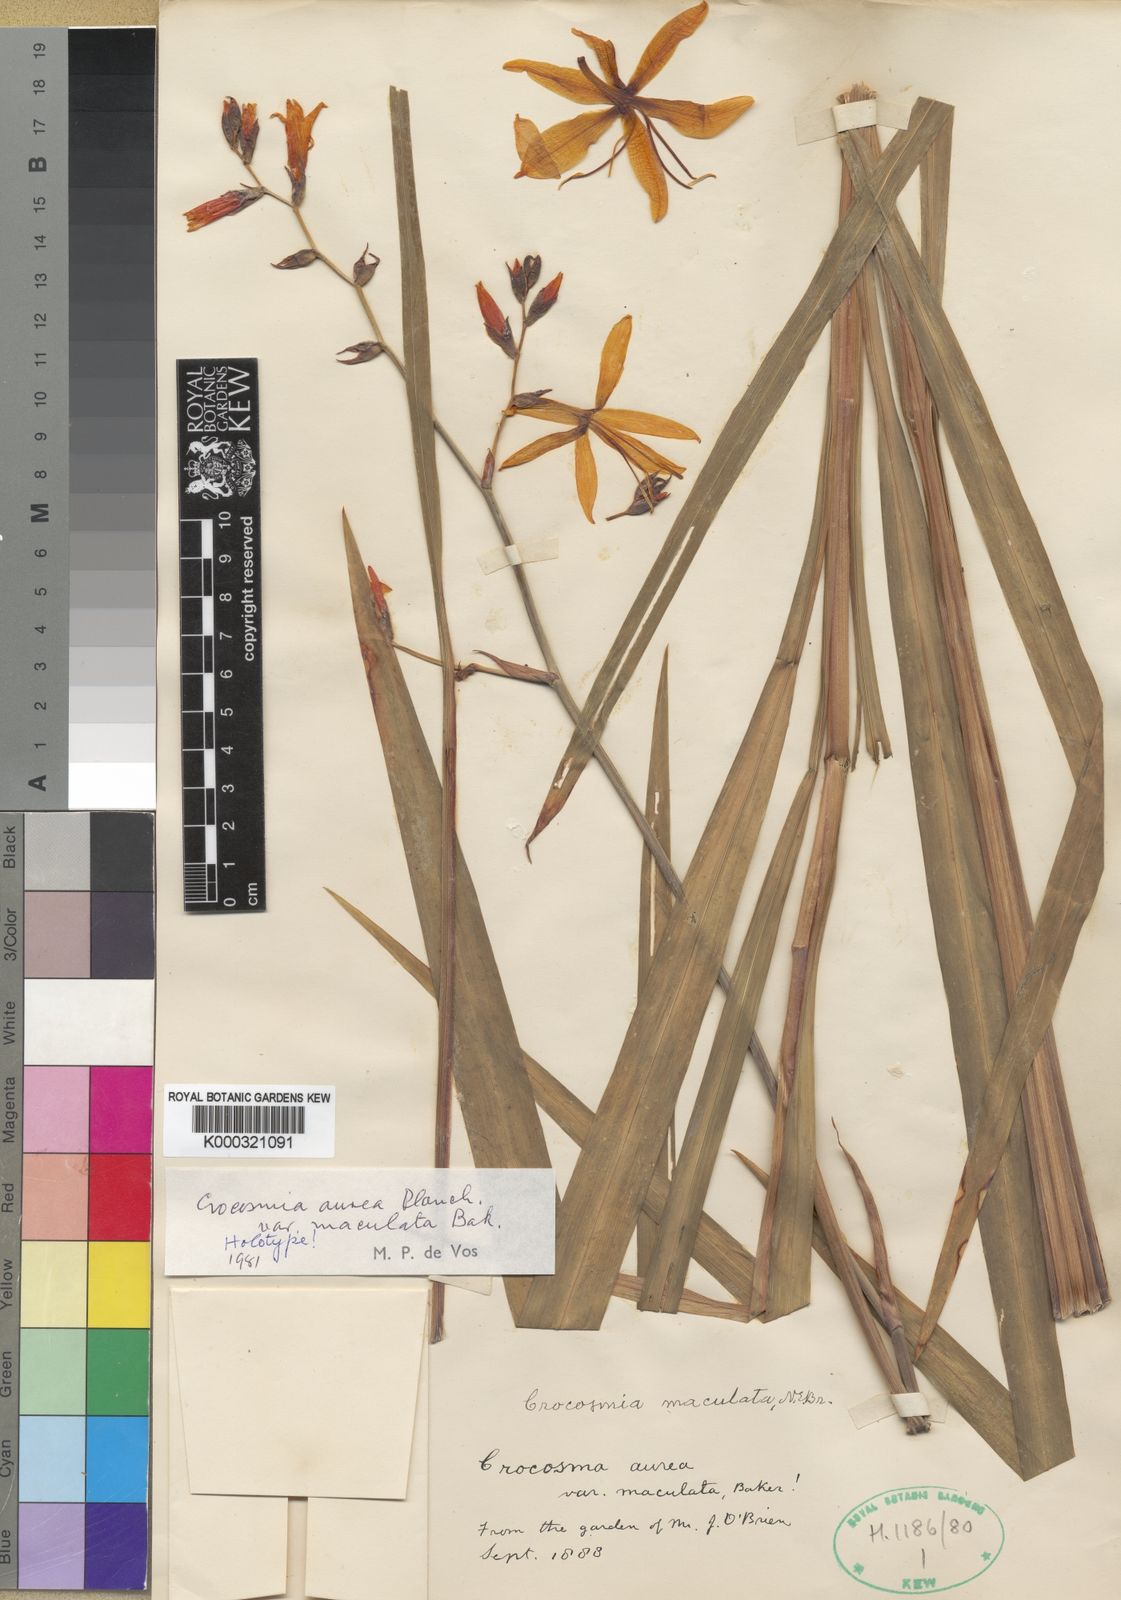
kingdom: Plantae
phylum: Tracheophyta
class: Liliopsida
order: Asparagales
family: Iridaceae
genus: Crocosmia
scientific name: Crocosmia aurea
